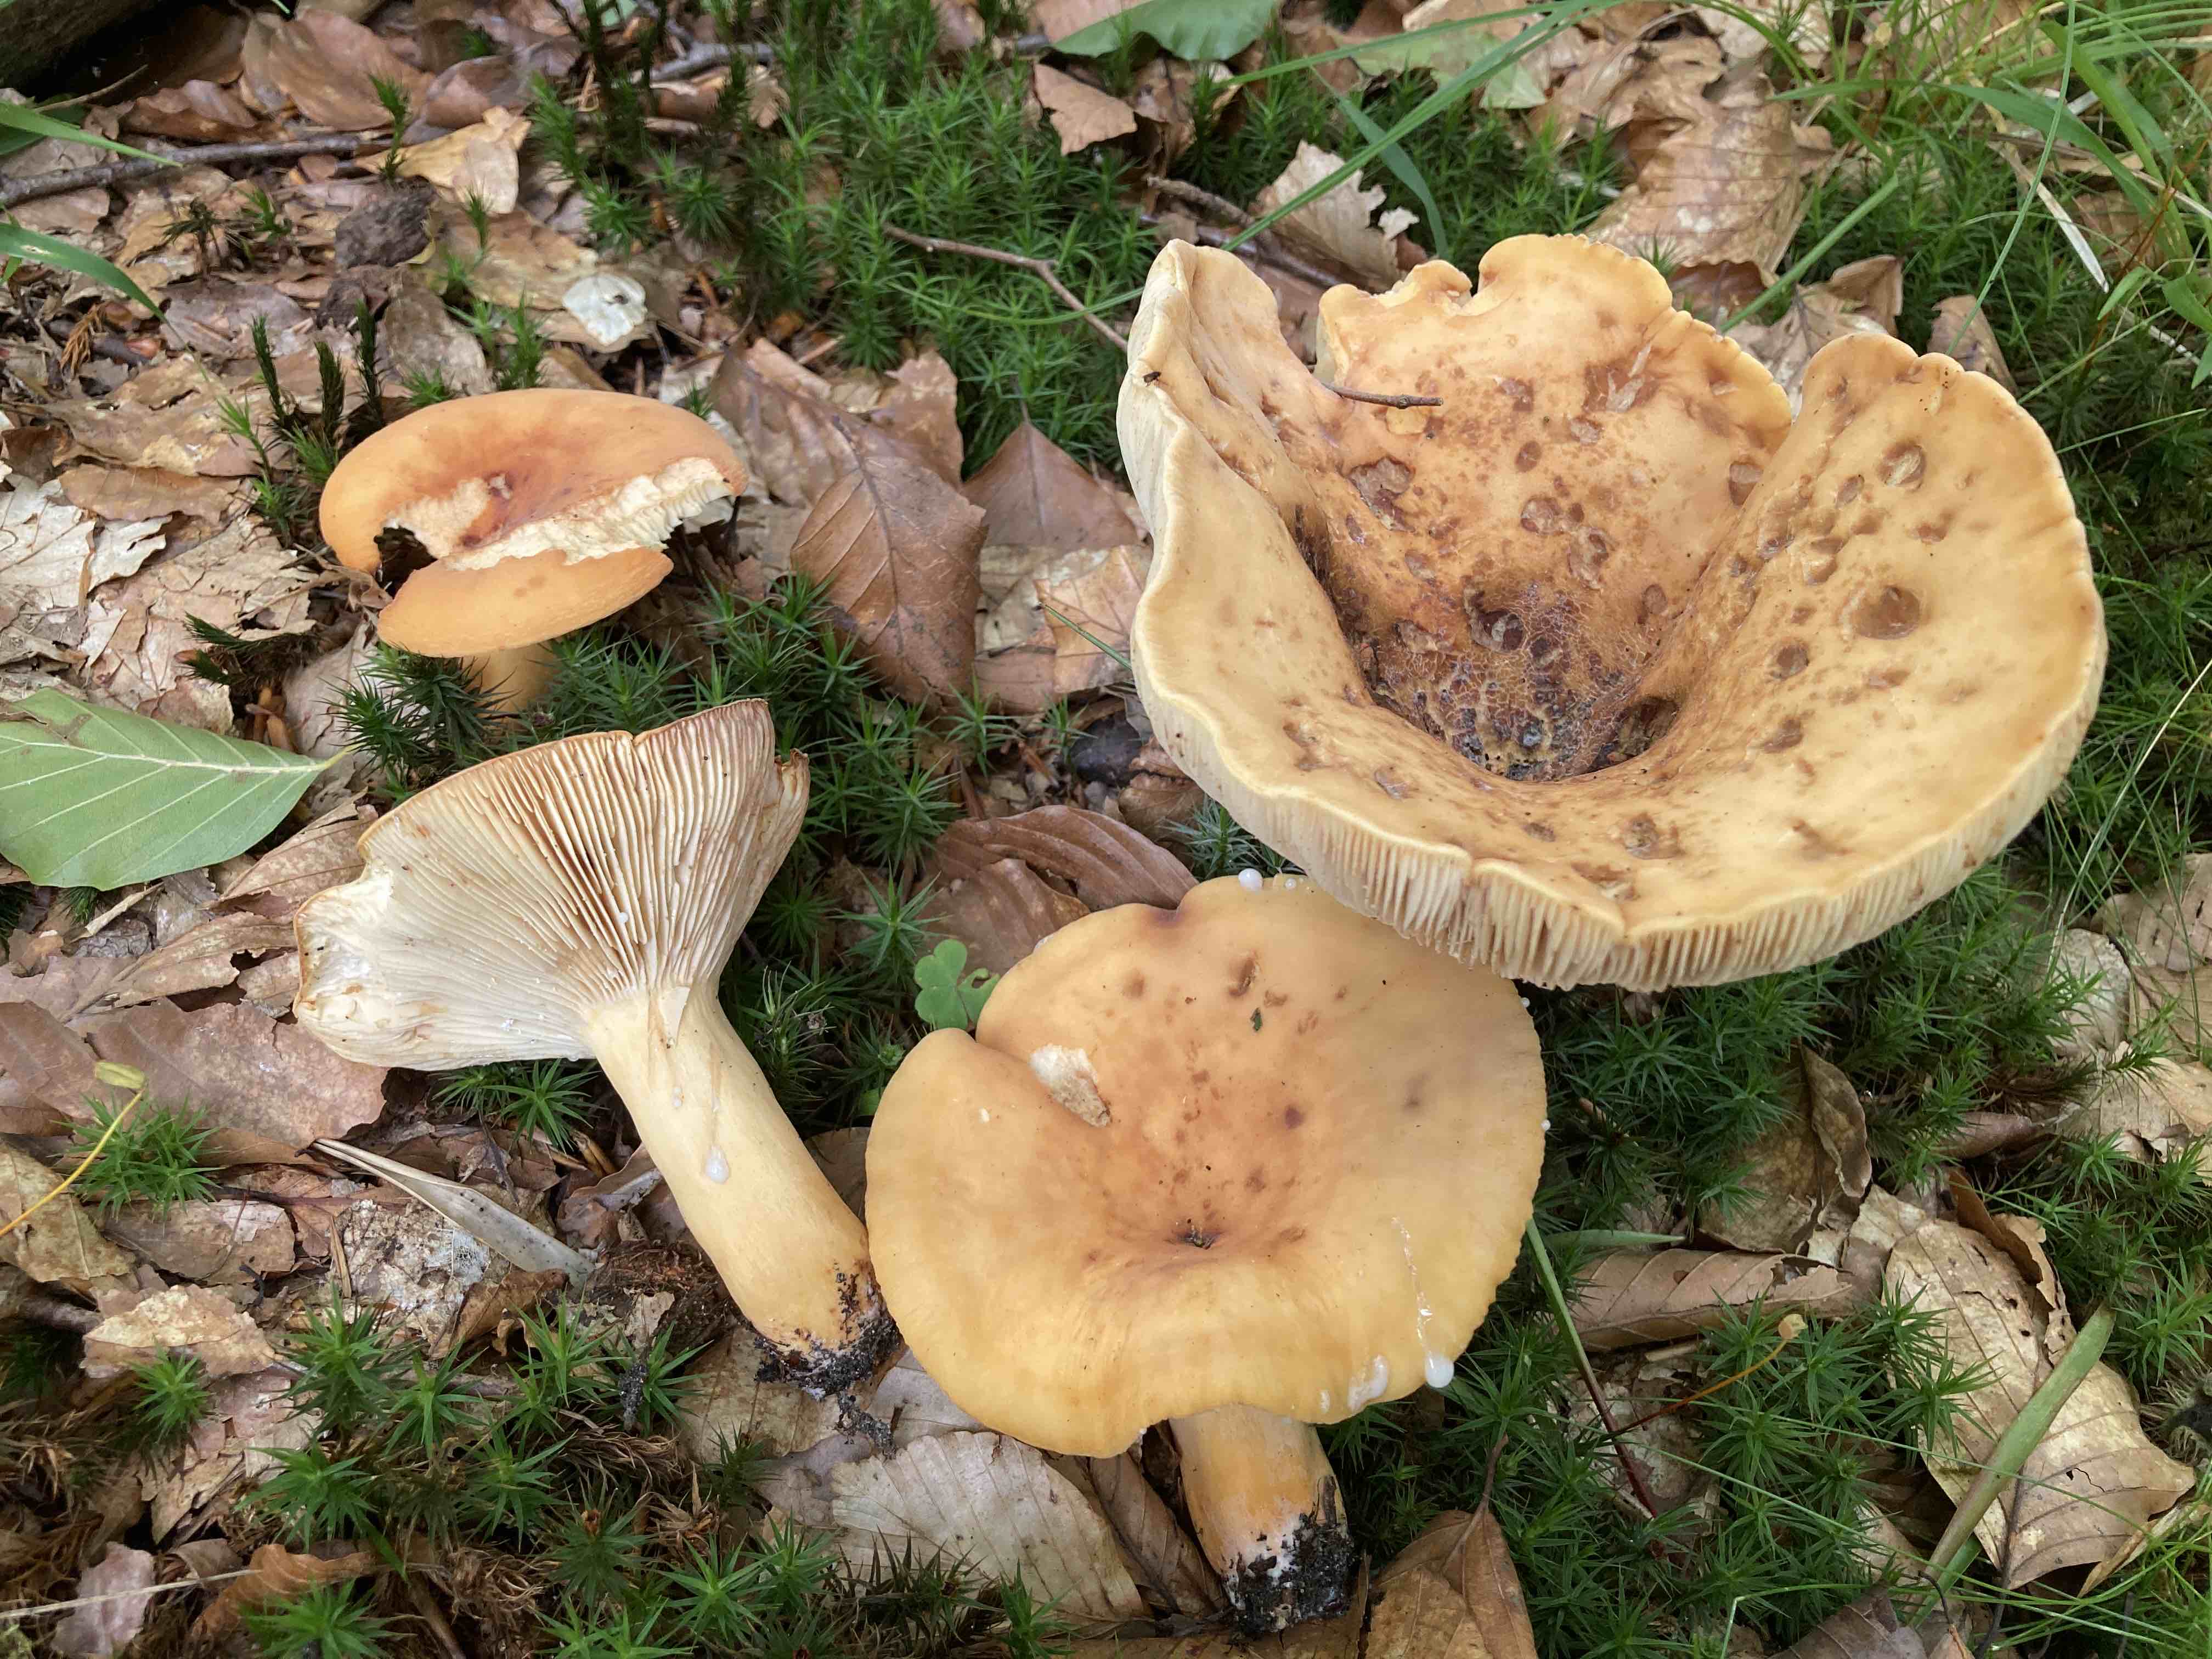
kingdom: Fungi
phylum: Basidiomycota
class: Agaricomycetes
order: Russulales
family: Russulaceae
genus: Lactifluus
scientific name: Lactifluus subvolemus
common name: hummer-mælkehat
